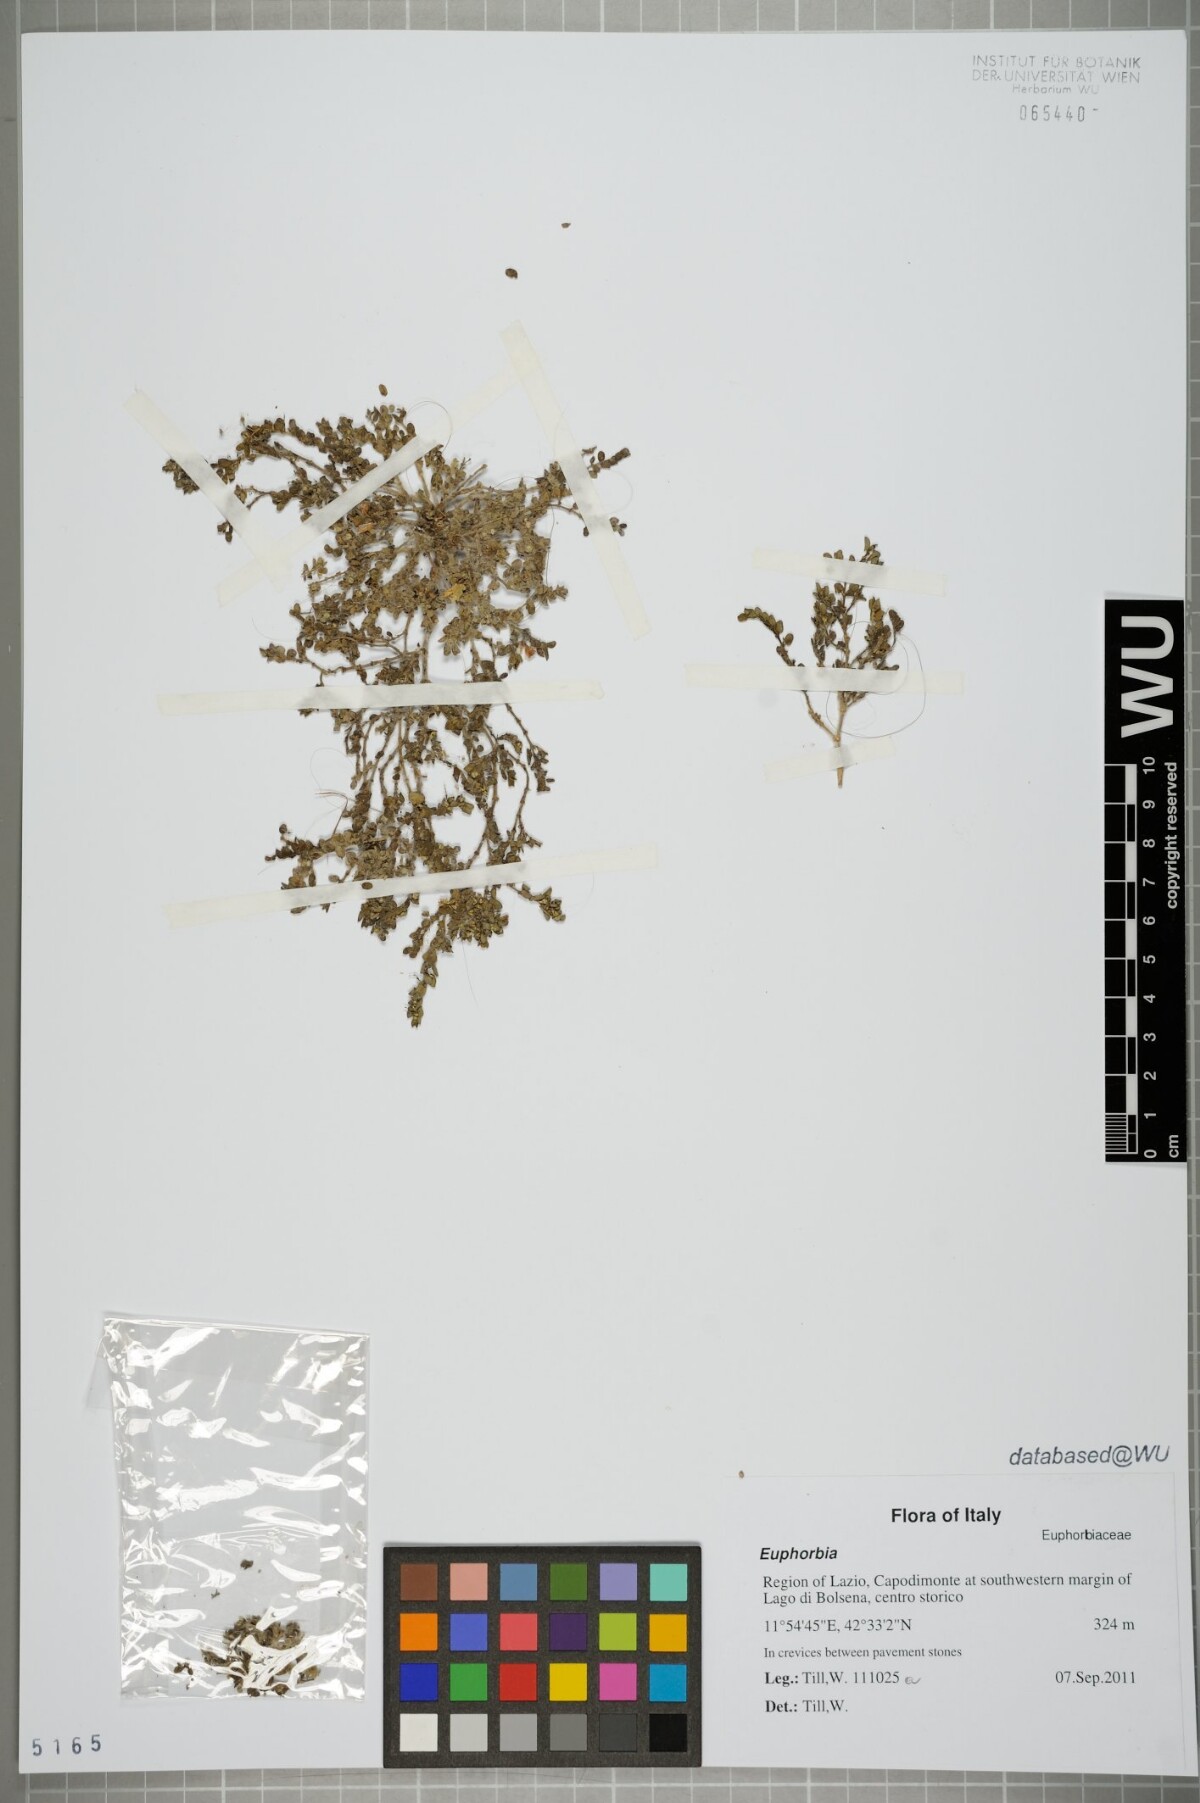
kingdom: Plantae
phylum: Tracheophyta
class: Magnoliopsida
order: Malpighiales
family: Euphorbiaceae
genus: Euphorbia
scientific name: Euphorbia
